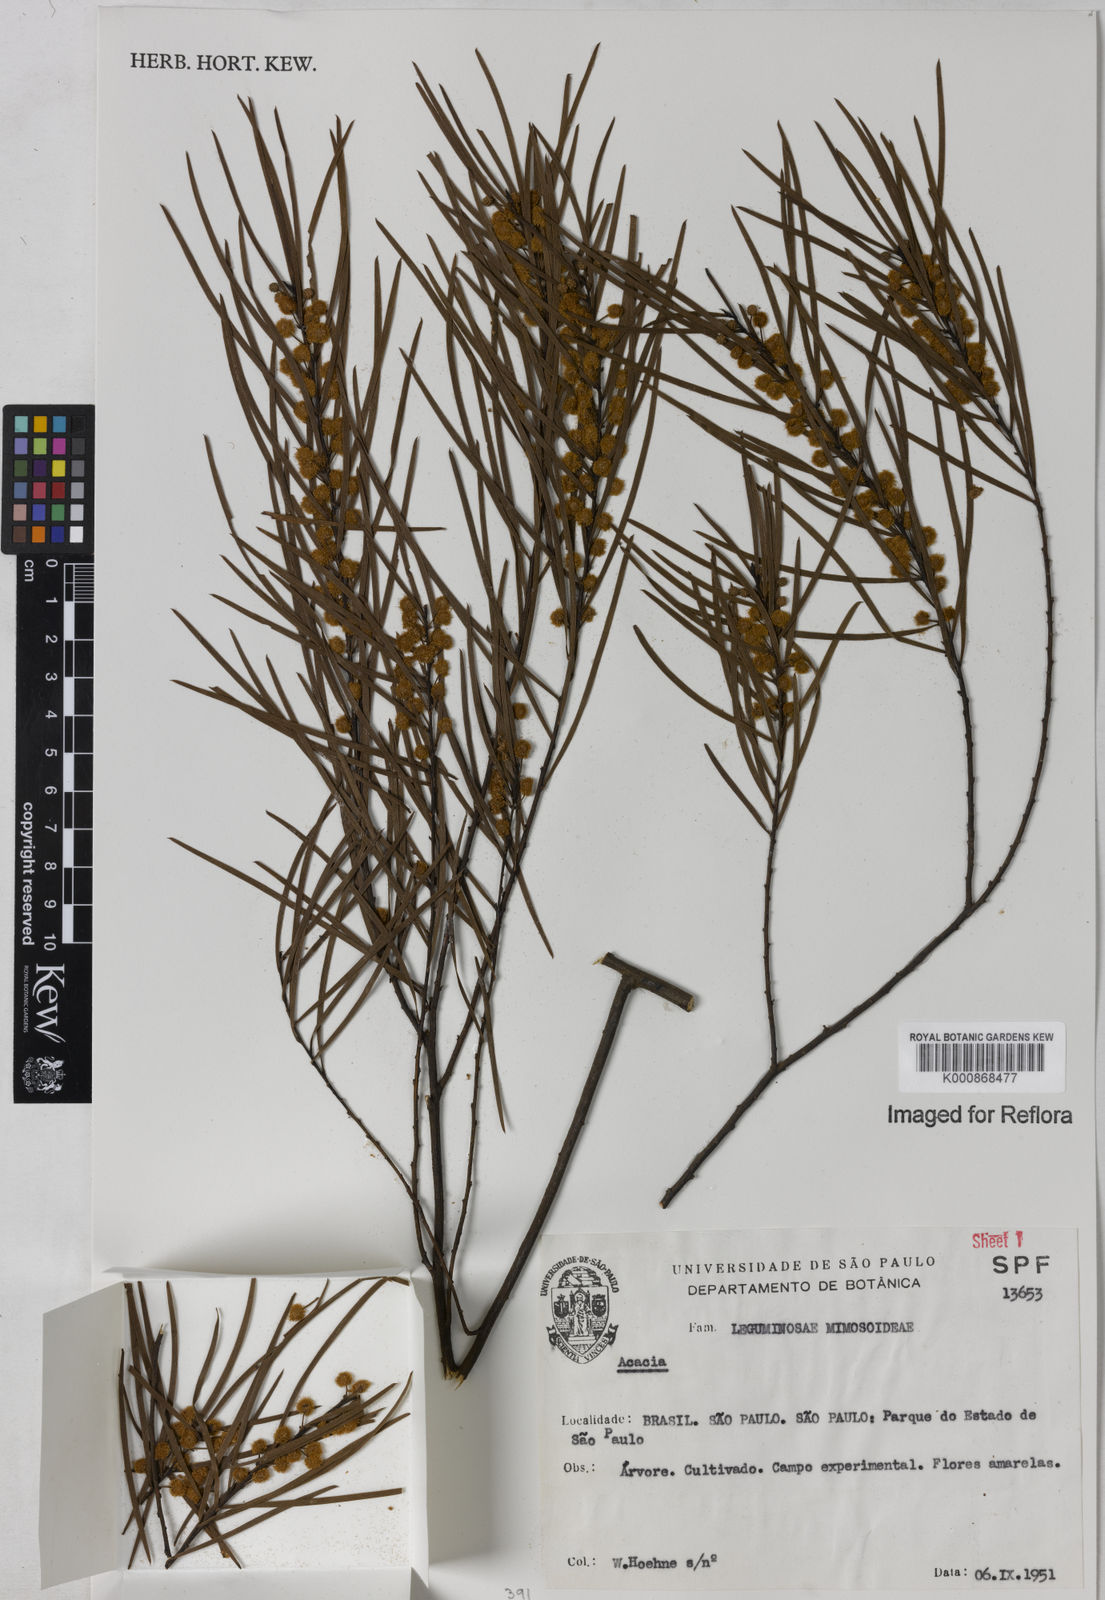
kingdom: Plantae
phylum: Tracheophyta
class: Magnoliopsida
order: Fabales
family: Fabaceae
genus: Acacia
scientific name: Acacia
